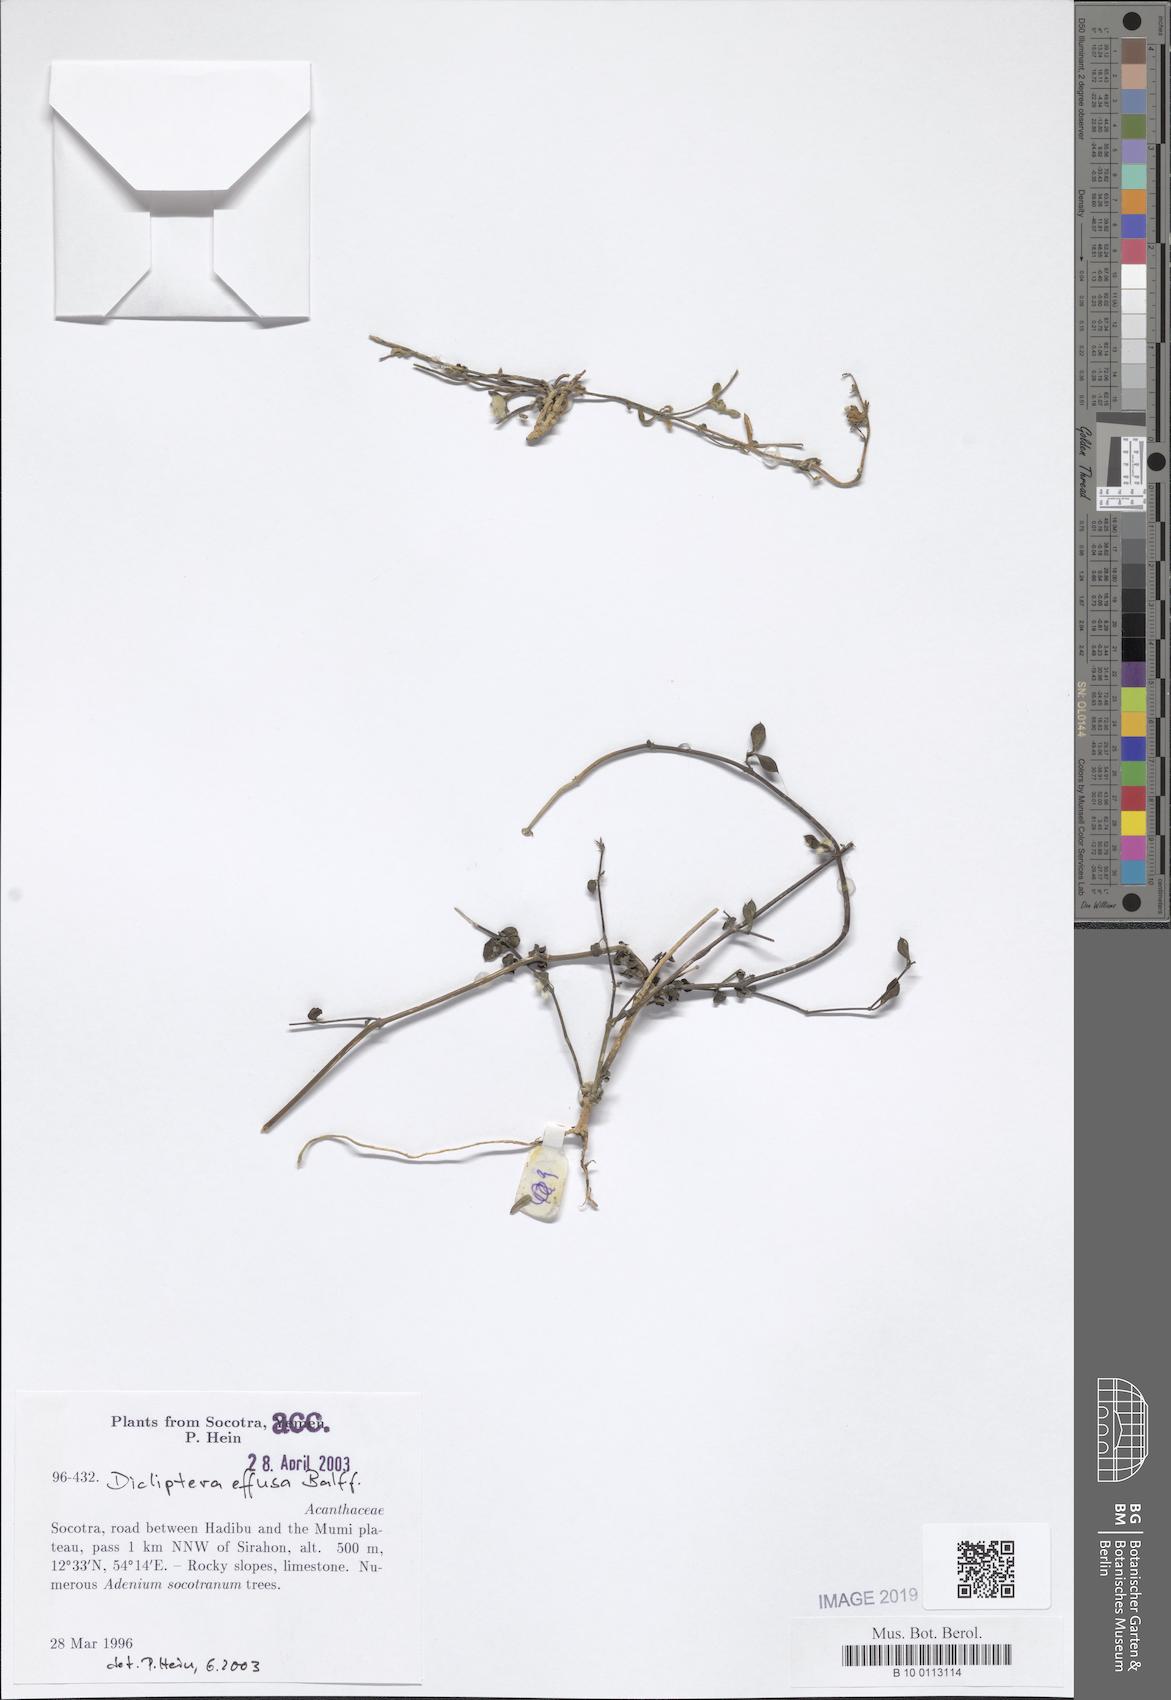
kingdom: Plantae
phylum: Tracheophyta
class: Magnoliopsida
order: Lamiales
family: Acanthaceae
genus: Dicliptera
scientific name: Dicliptera effusa
